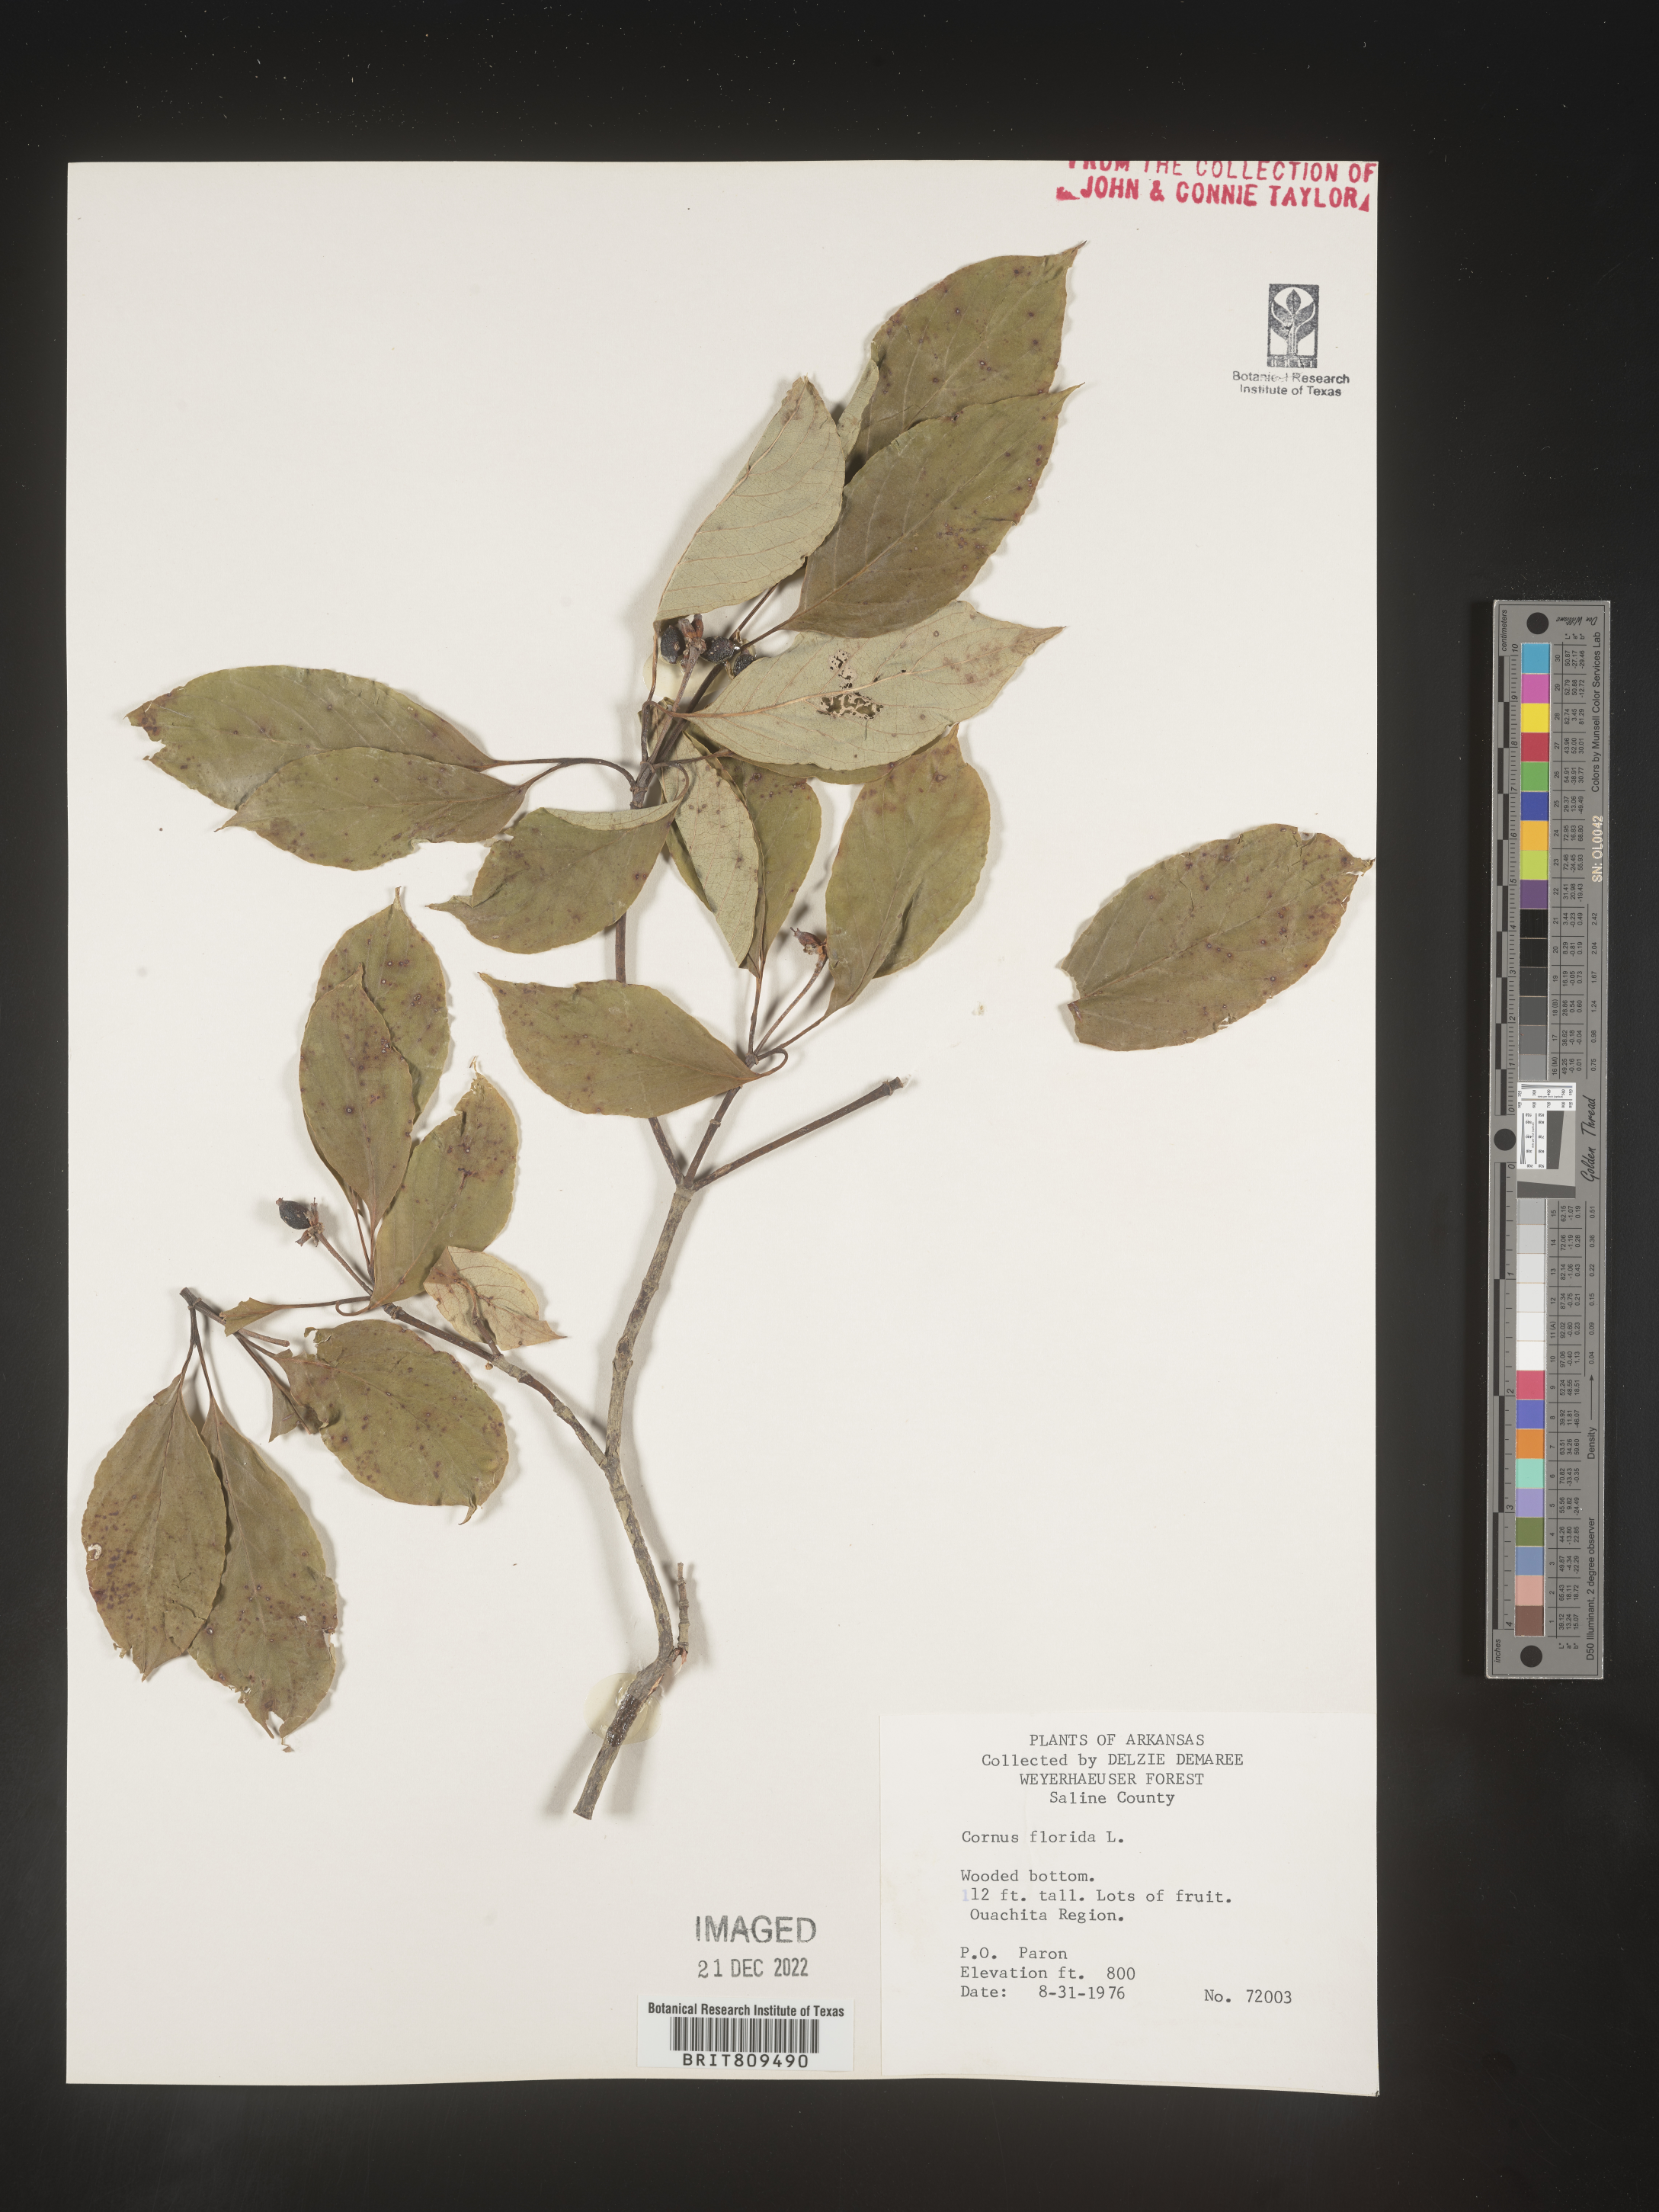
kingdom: Plantae
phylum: Tracheophyta
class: Magnoliopsida
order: Cornales
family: Cornaceae
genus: Cornus
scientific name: Cornus florida
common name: Flowering dogwood
